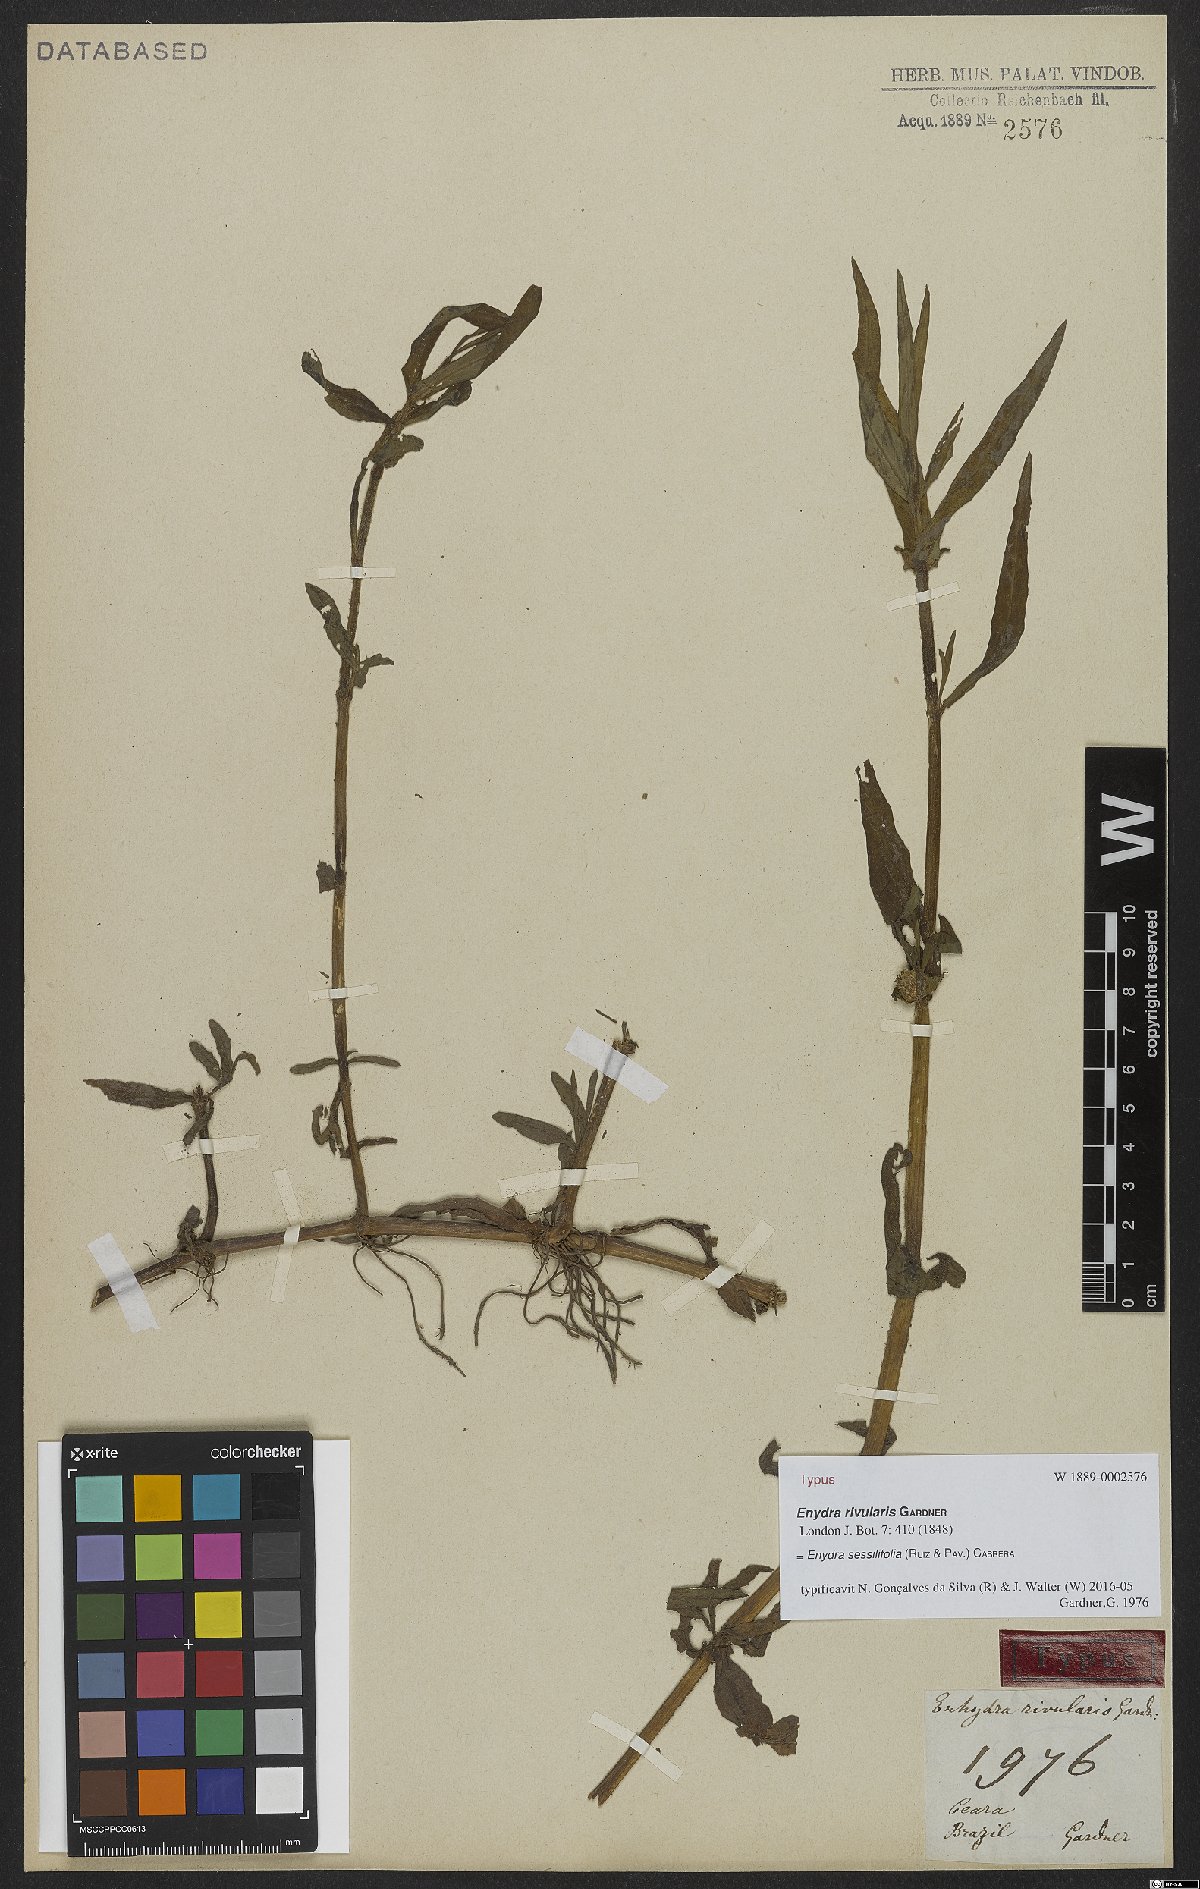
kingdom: Plantae
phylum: Tracheophyta
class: Magnoliopsida
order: Asterales
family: Asteraceae
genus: Enydra
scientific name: Enydra sessilifolia
